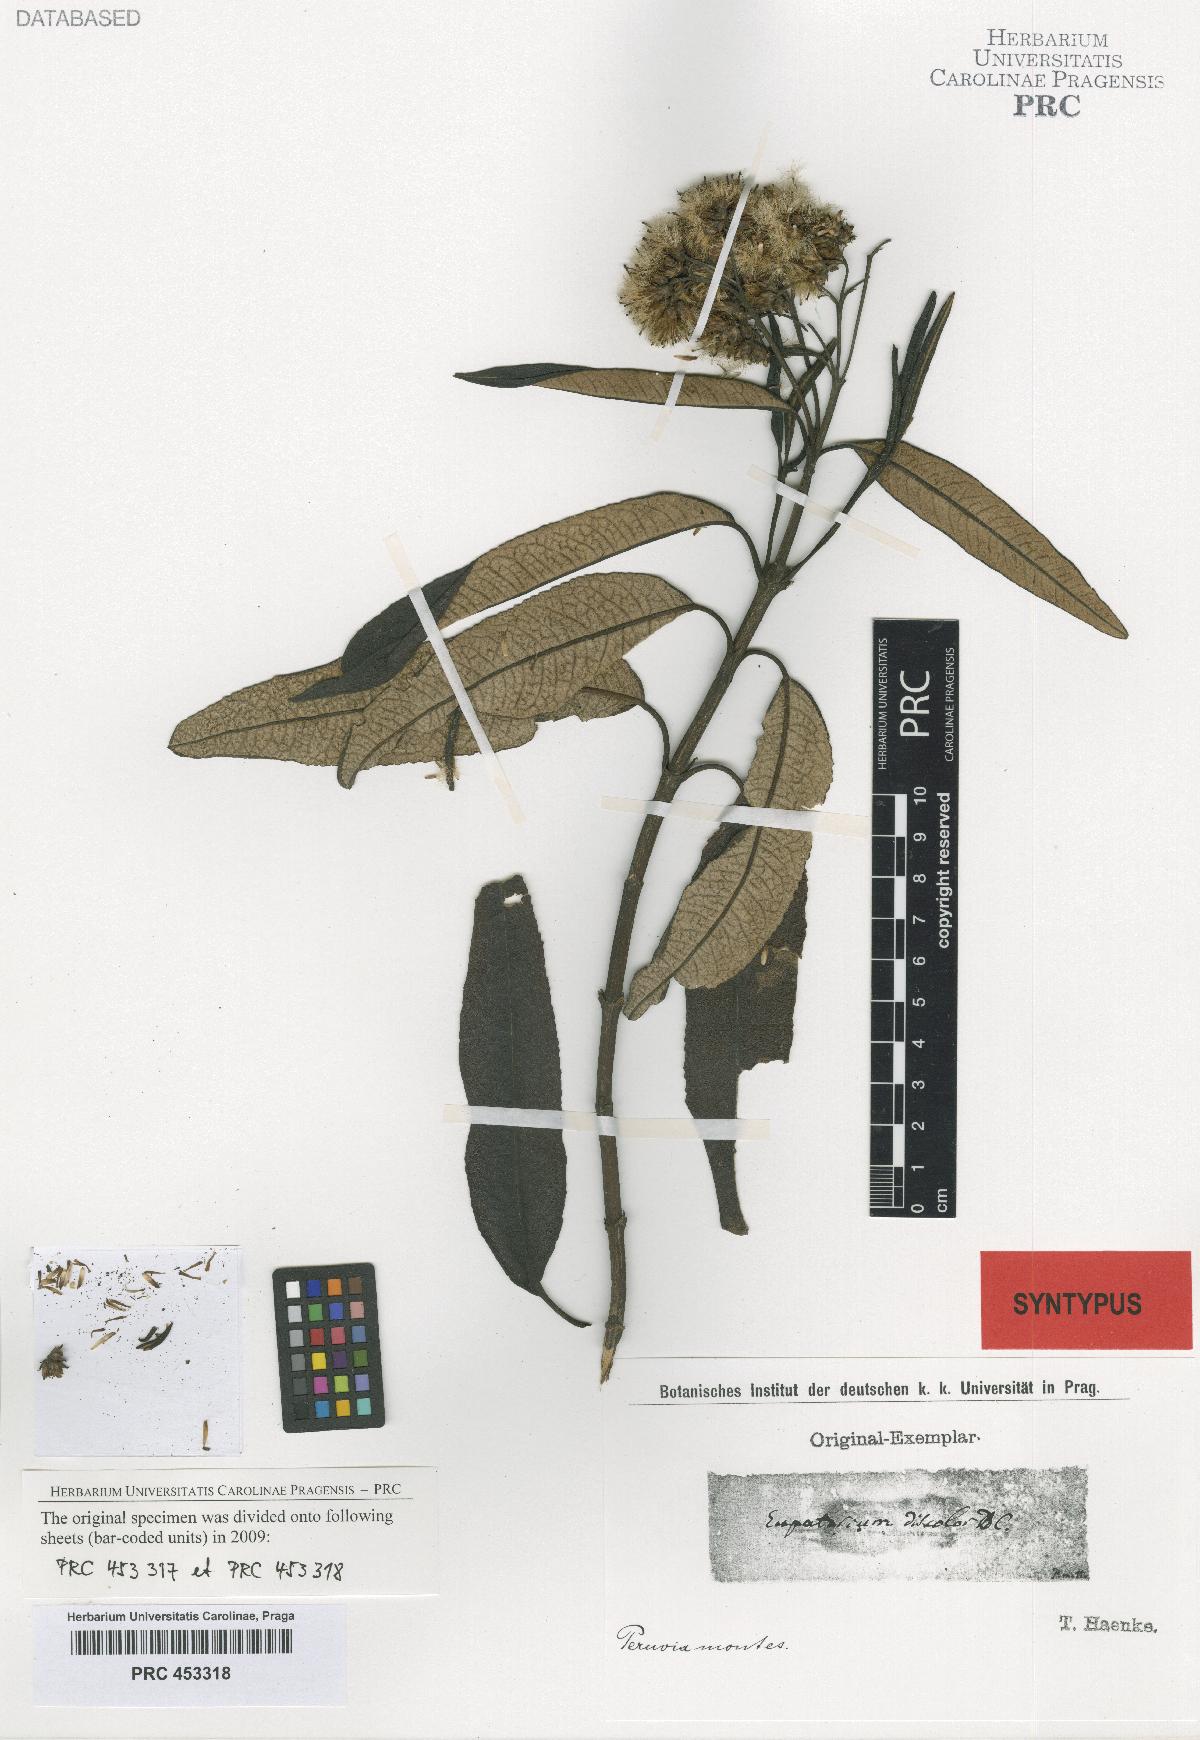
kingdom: Plantae
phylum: Tracheophyta
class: Magnoliopsida
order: Asterales
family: Asteraceae
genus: Aristeguietia
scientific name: Aristeguietia discolor
